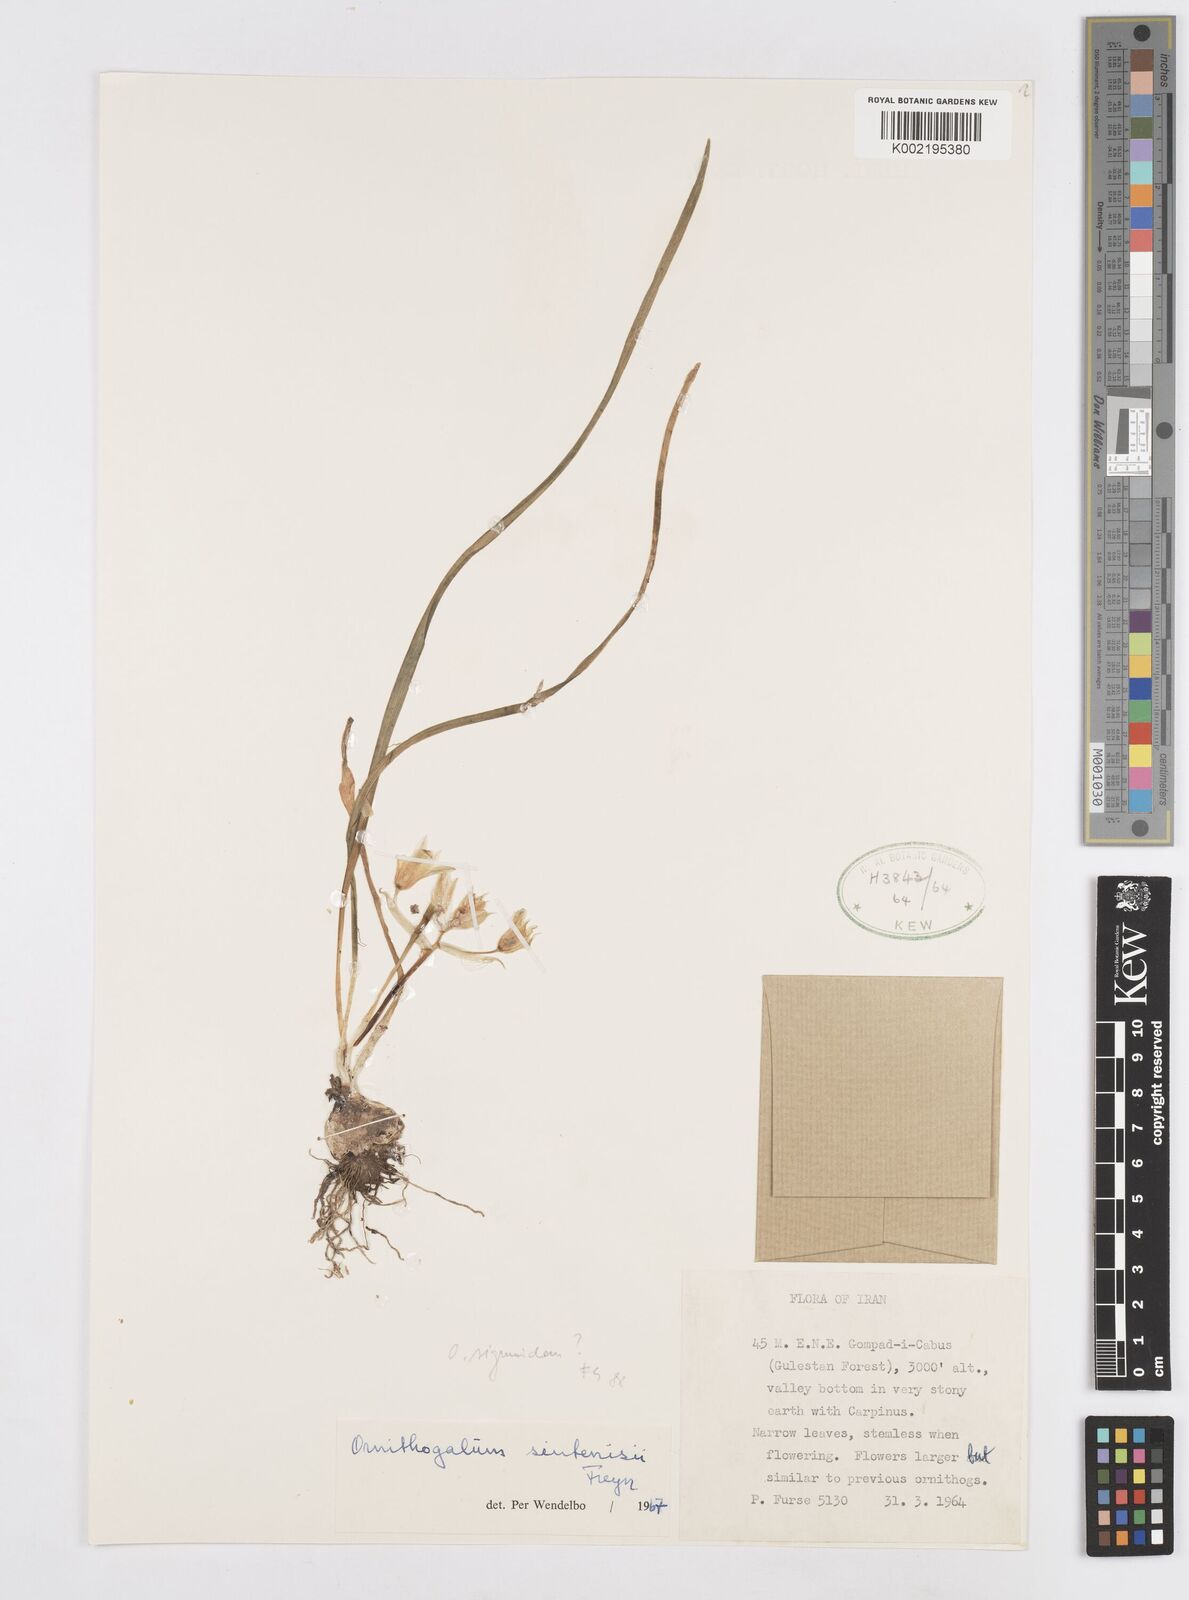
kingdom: Plantae
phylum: Tracheophyta
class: Liliopsida
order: Asparagales
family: Asparagaceae
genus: Ornithogalum
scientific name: Ornithogalum sintenisii
